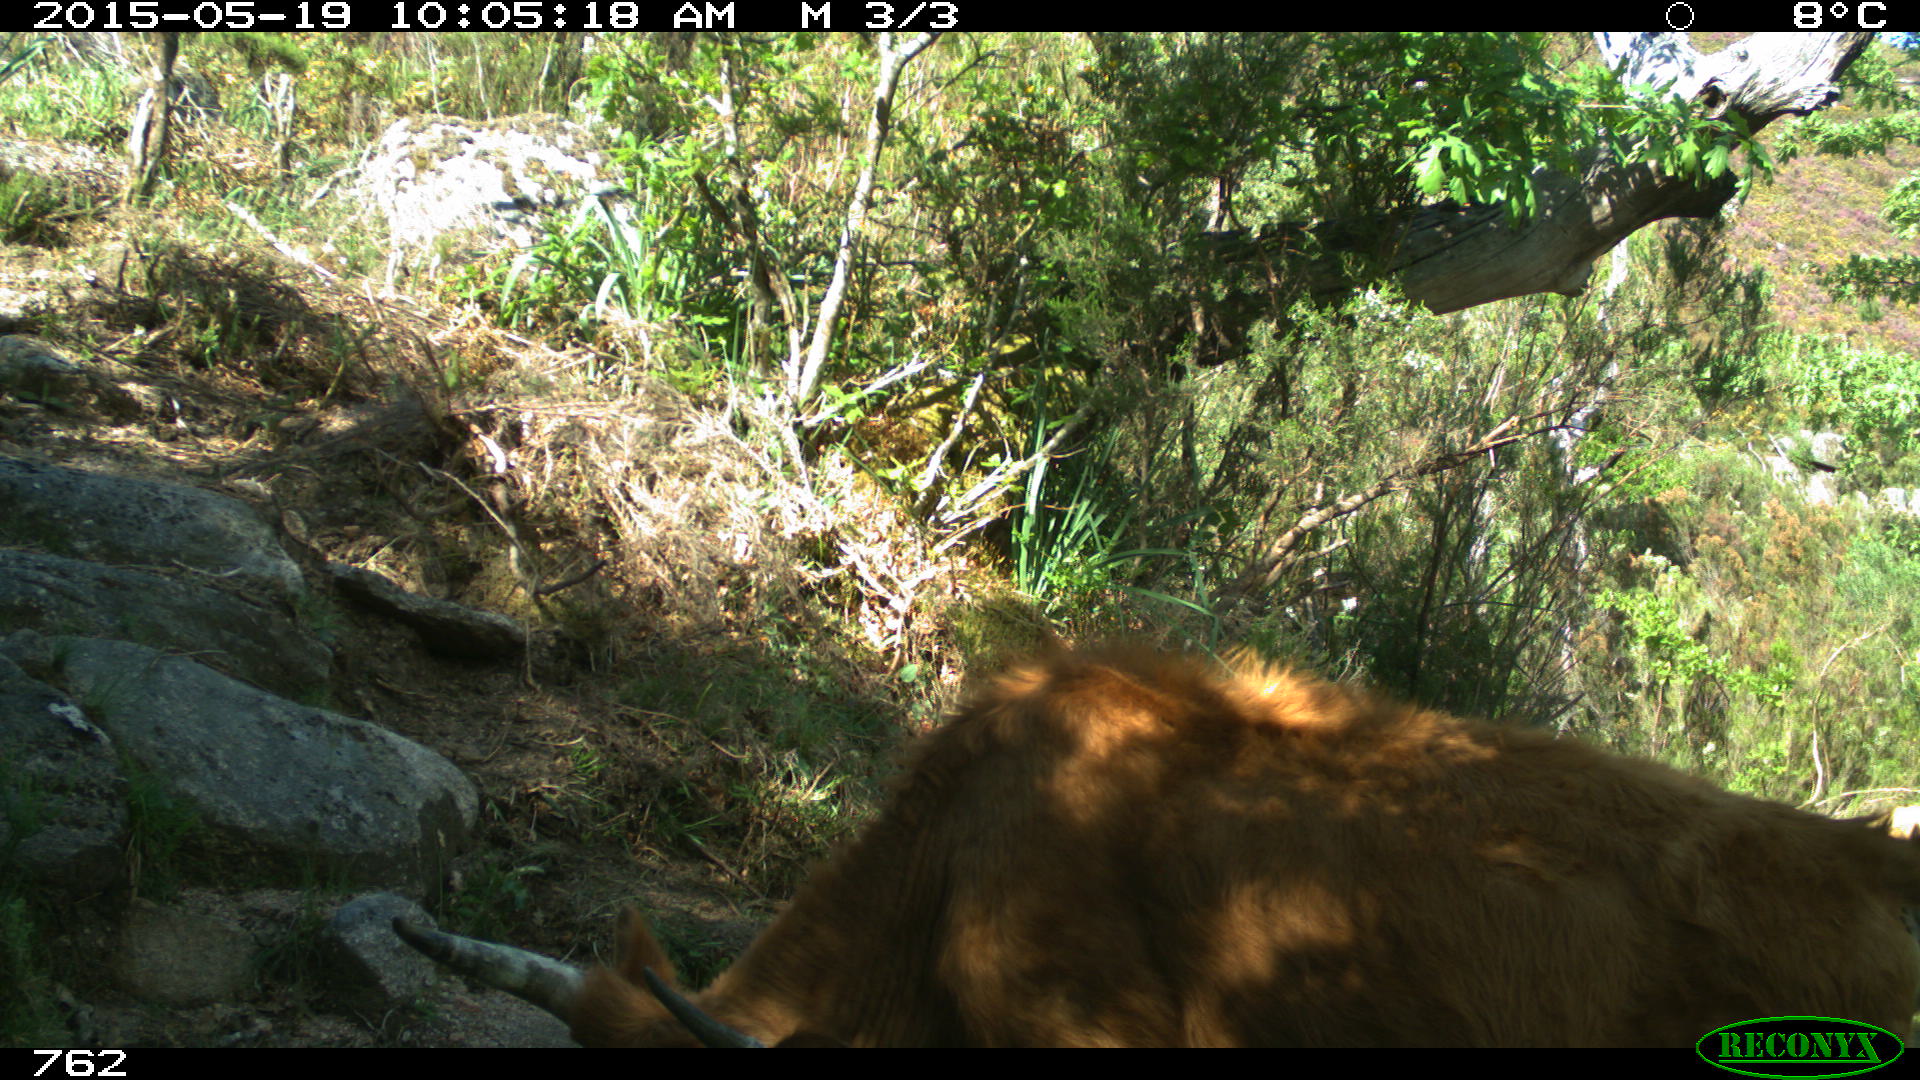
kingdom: Animalia
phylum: Chordata
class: Mammalia
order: Artiodactyla
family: Bovidae
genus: Bos
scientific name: Bos taurus
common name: Domesticated cattle
